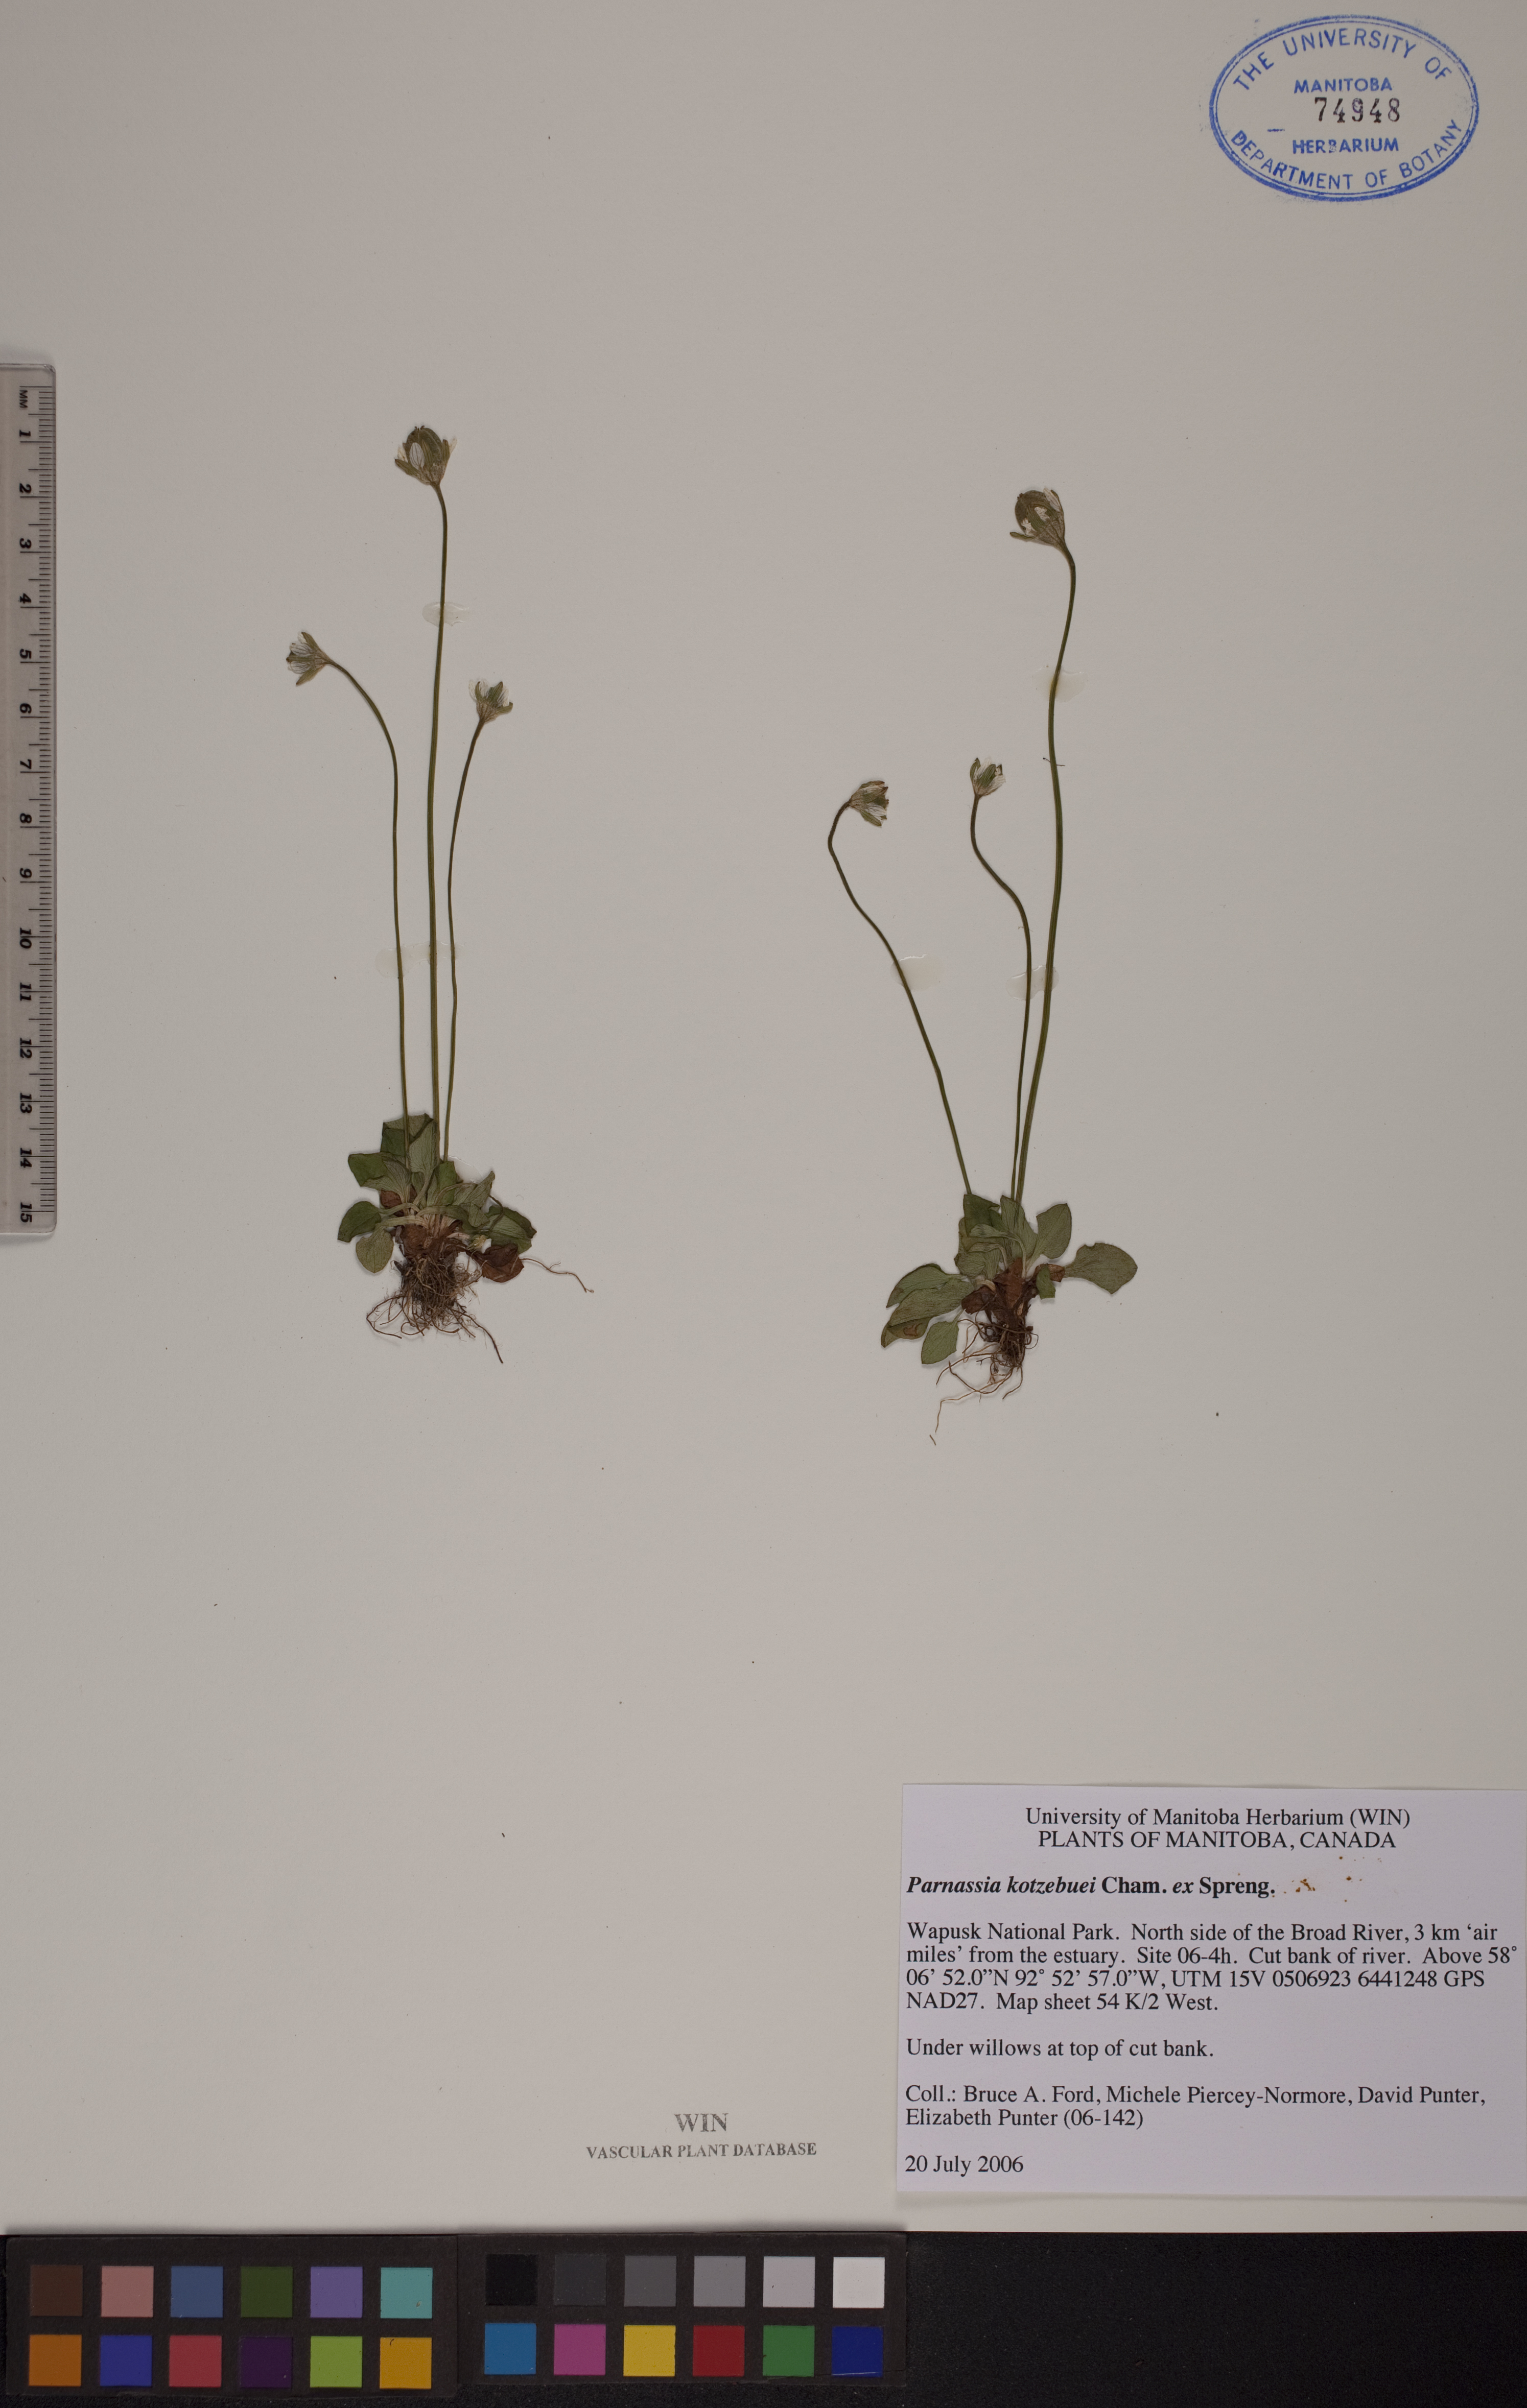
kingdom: Plantae
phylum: Tracheophyta
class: Magnoliopsida
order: Celastrales
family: Parnassiaceae
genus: Parnassia
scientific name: Parnassia kotzebuei
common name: Kotzebue's grass-of-parnassus
